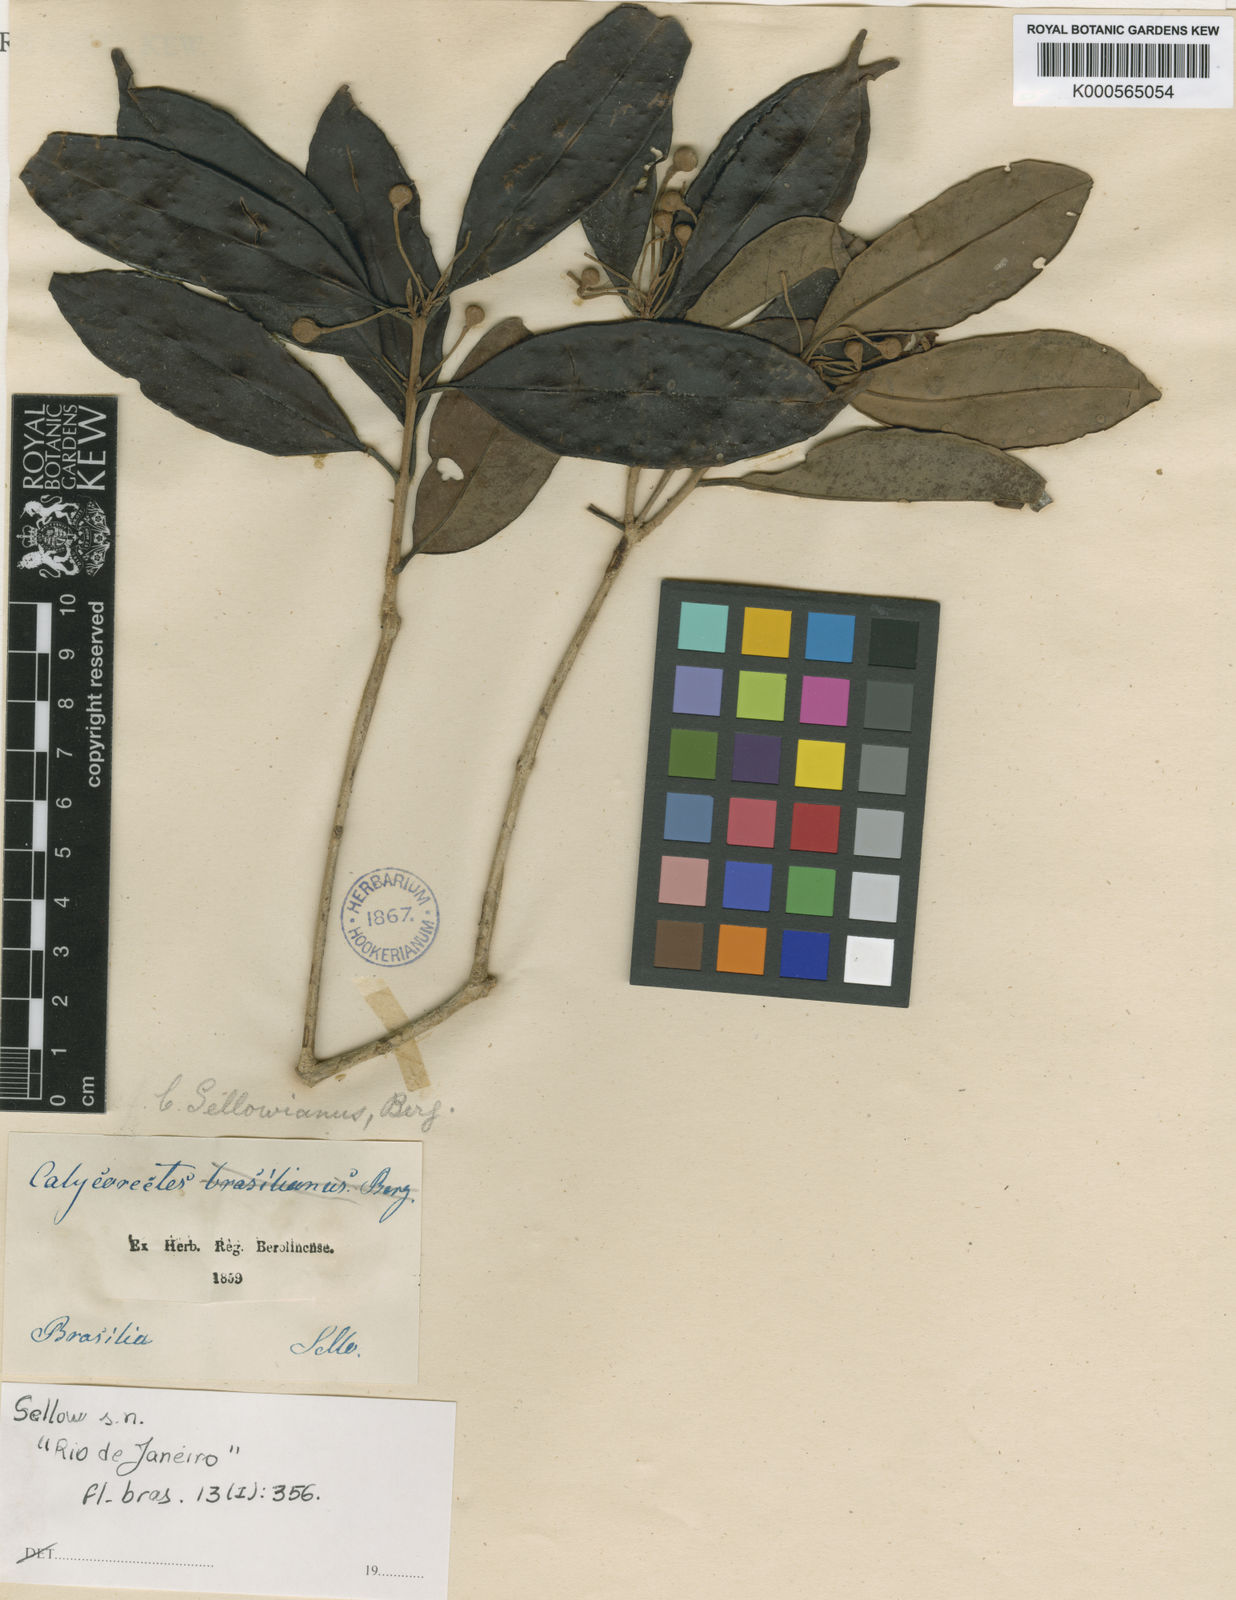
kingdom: Plantae
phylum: Tracheophyta
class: Magnoliopsida
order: Myrtales
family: Myrtaceae
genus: Eugenia
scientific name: Eugenia brevistyla
